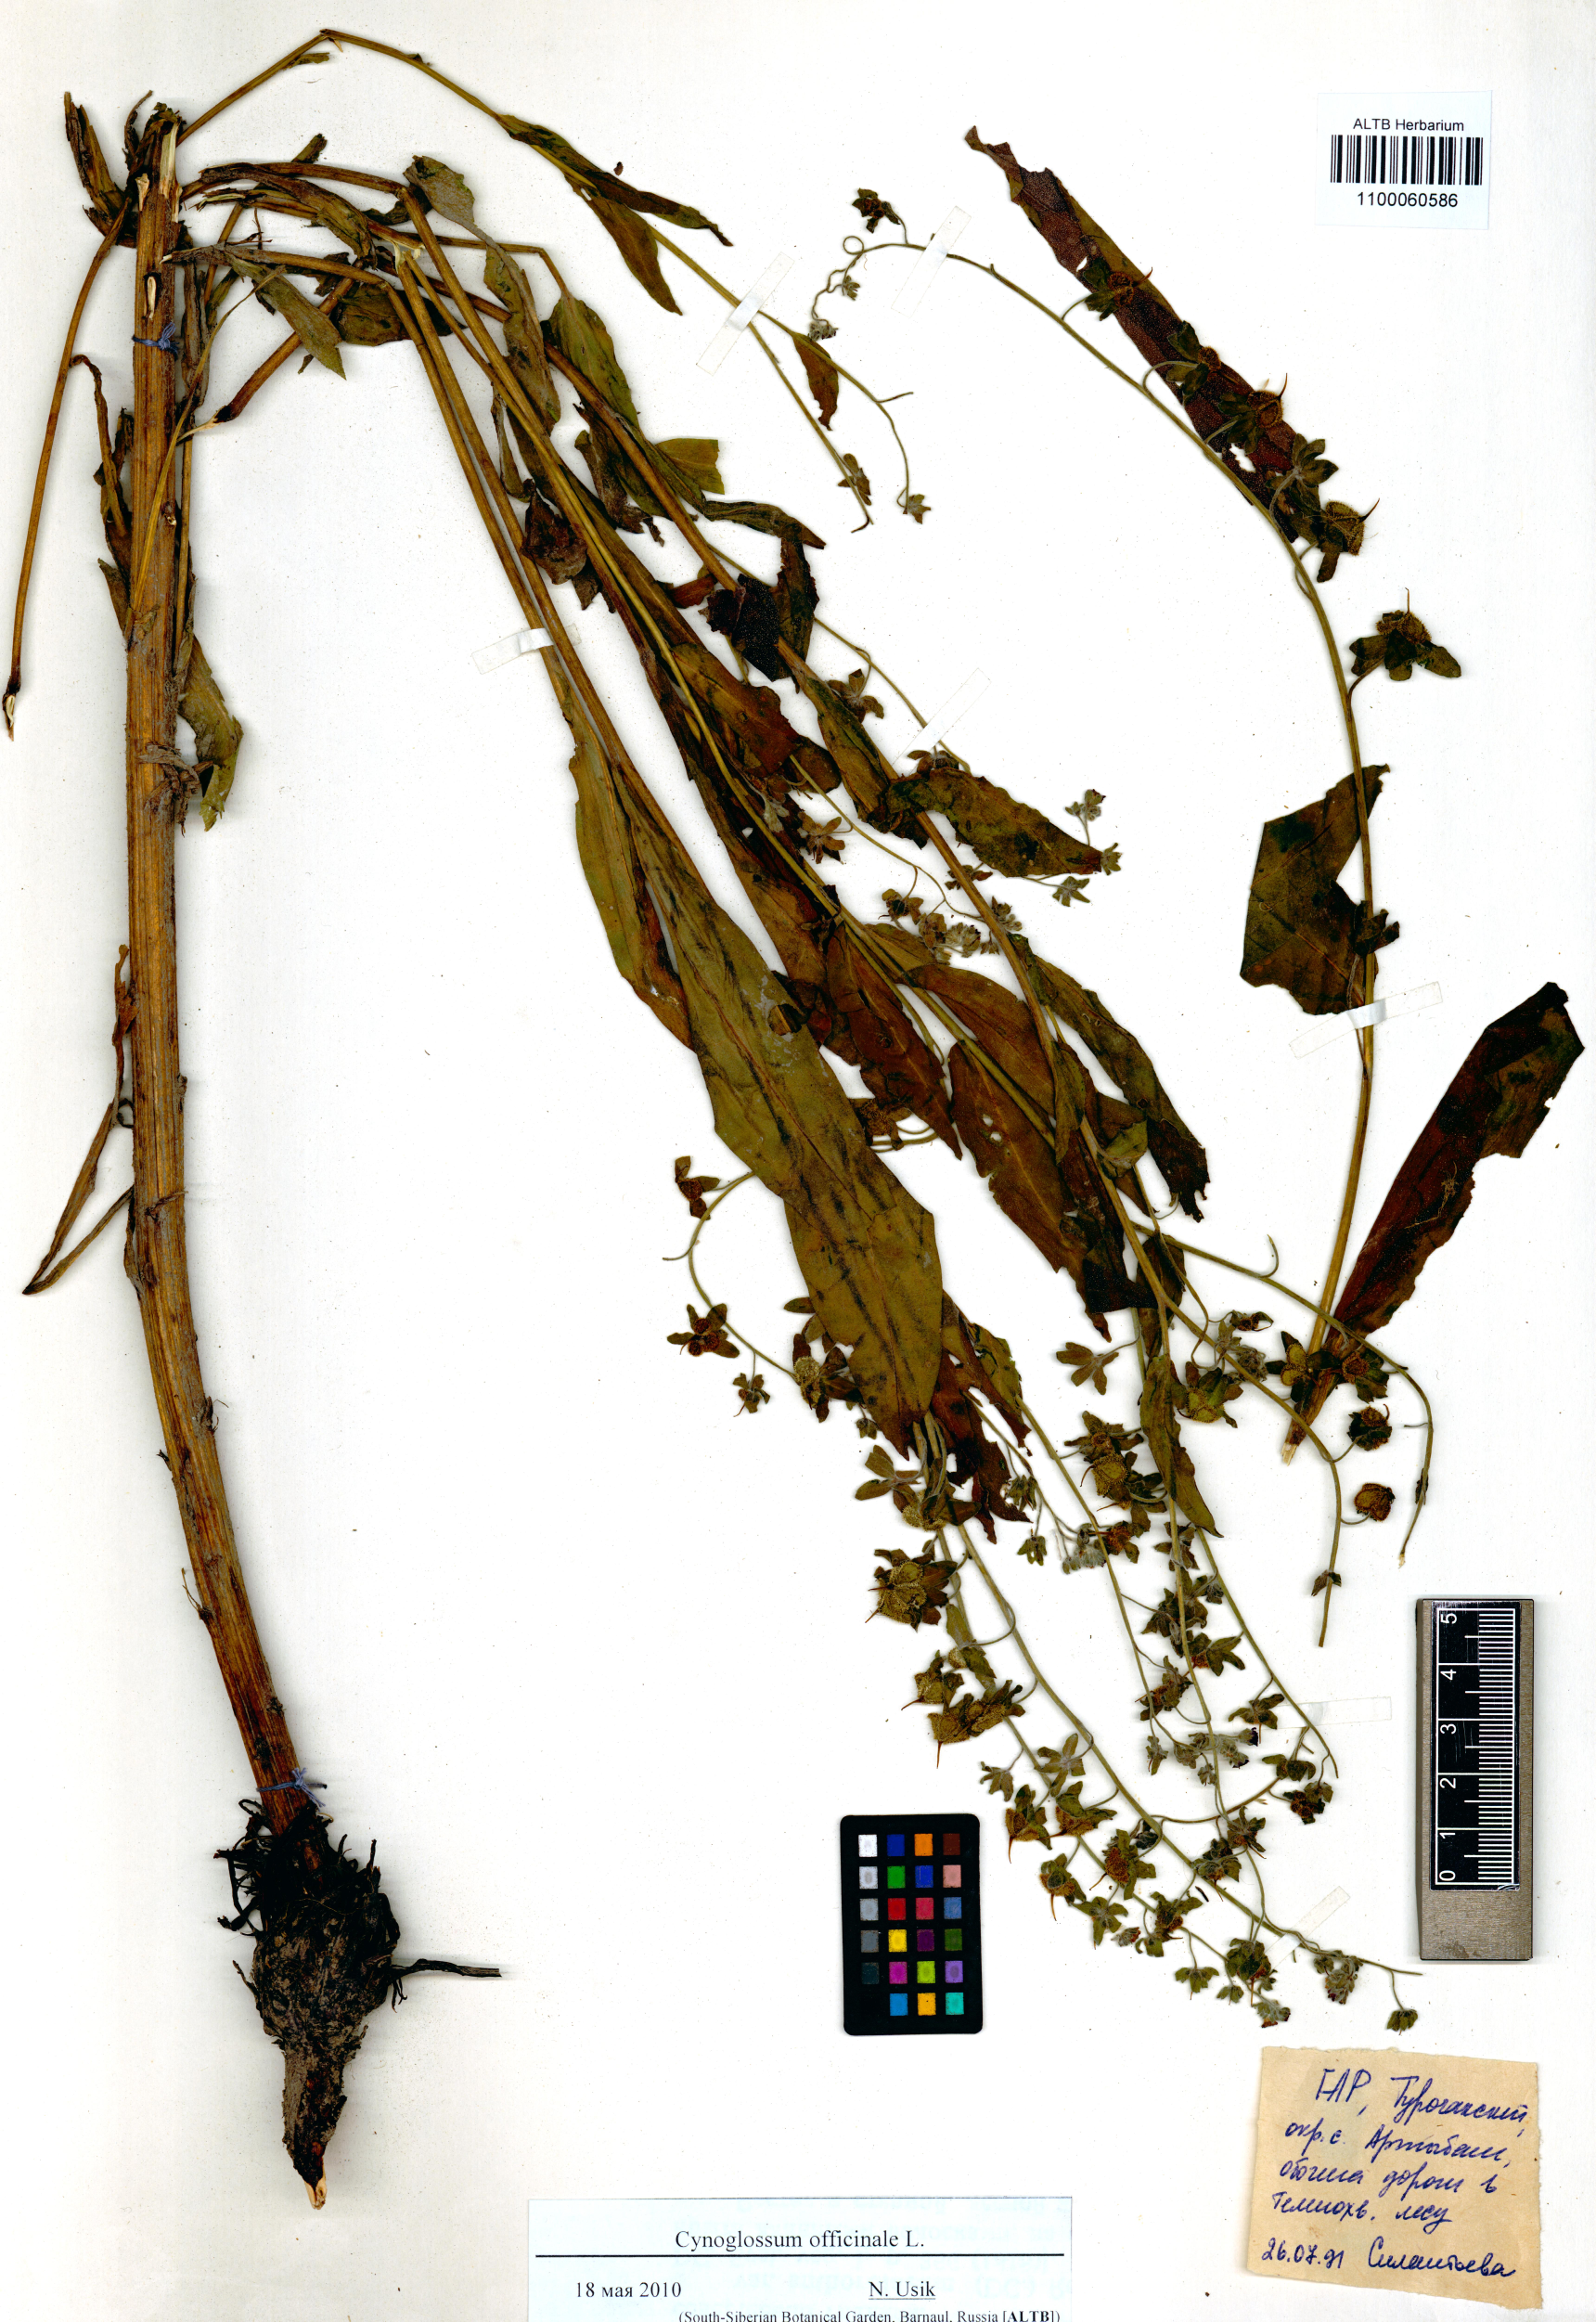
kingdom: Plantae
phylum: Tracheophyta
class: Magnoliopsida
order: Boraginales
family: Boraginaceae
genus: Cynoglossum
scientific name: Cynoglossum officinale
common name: Hound's-tongue
